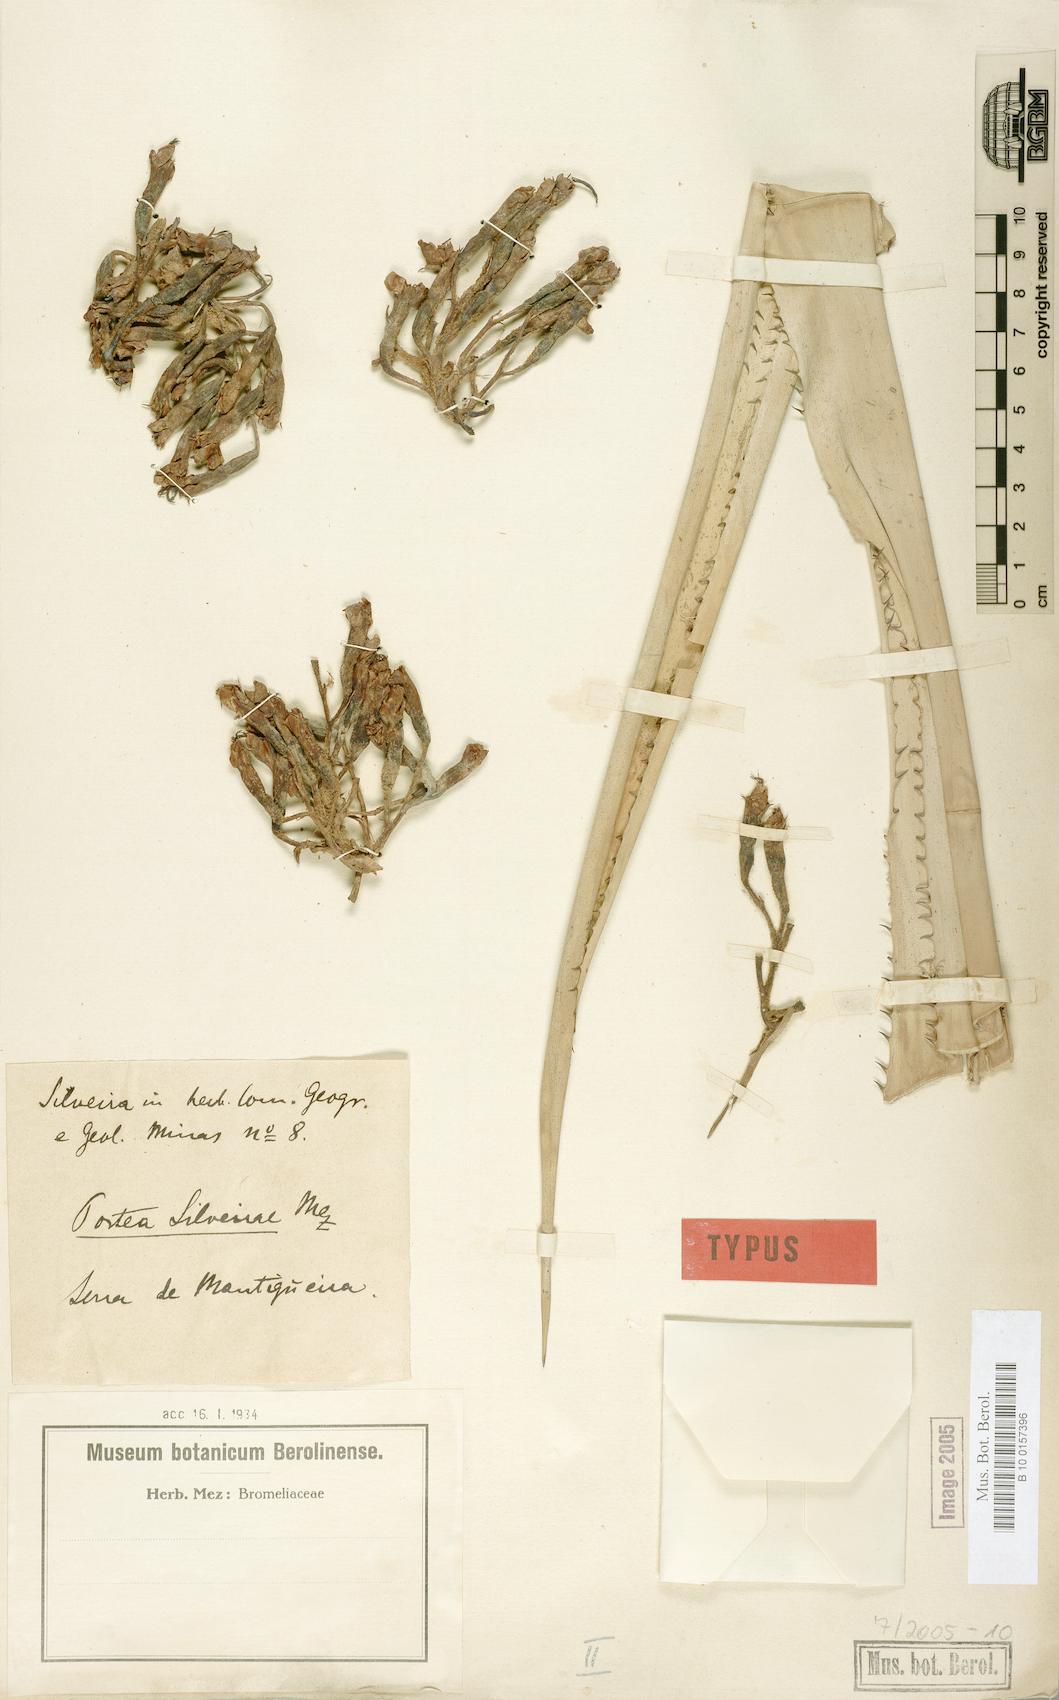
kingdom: Plantae
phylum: Tracheophyta
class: Liliopsida
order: Poales
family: Bromeliaceae
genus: Portea
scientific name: Portea silveirae
